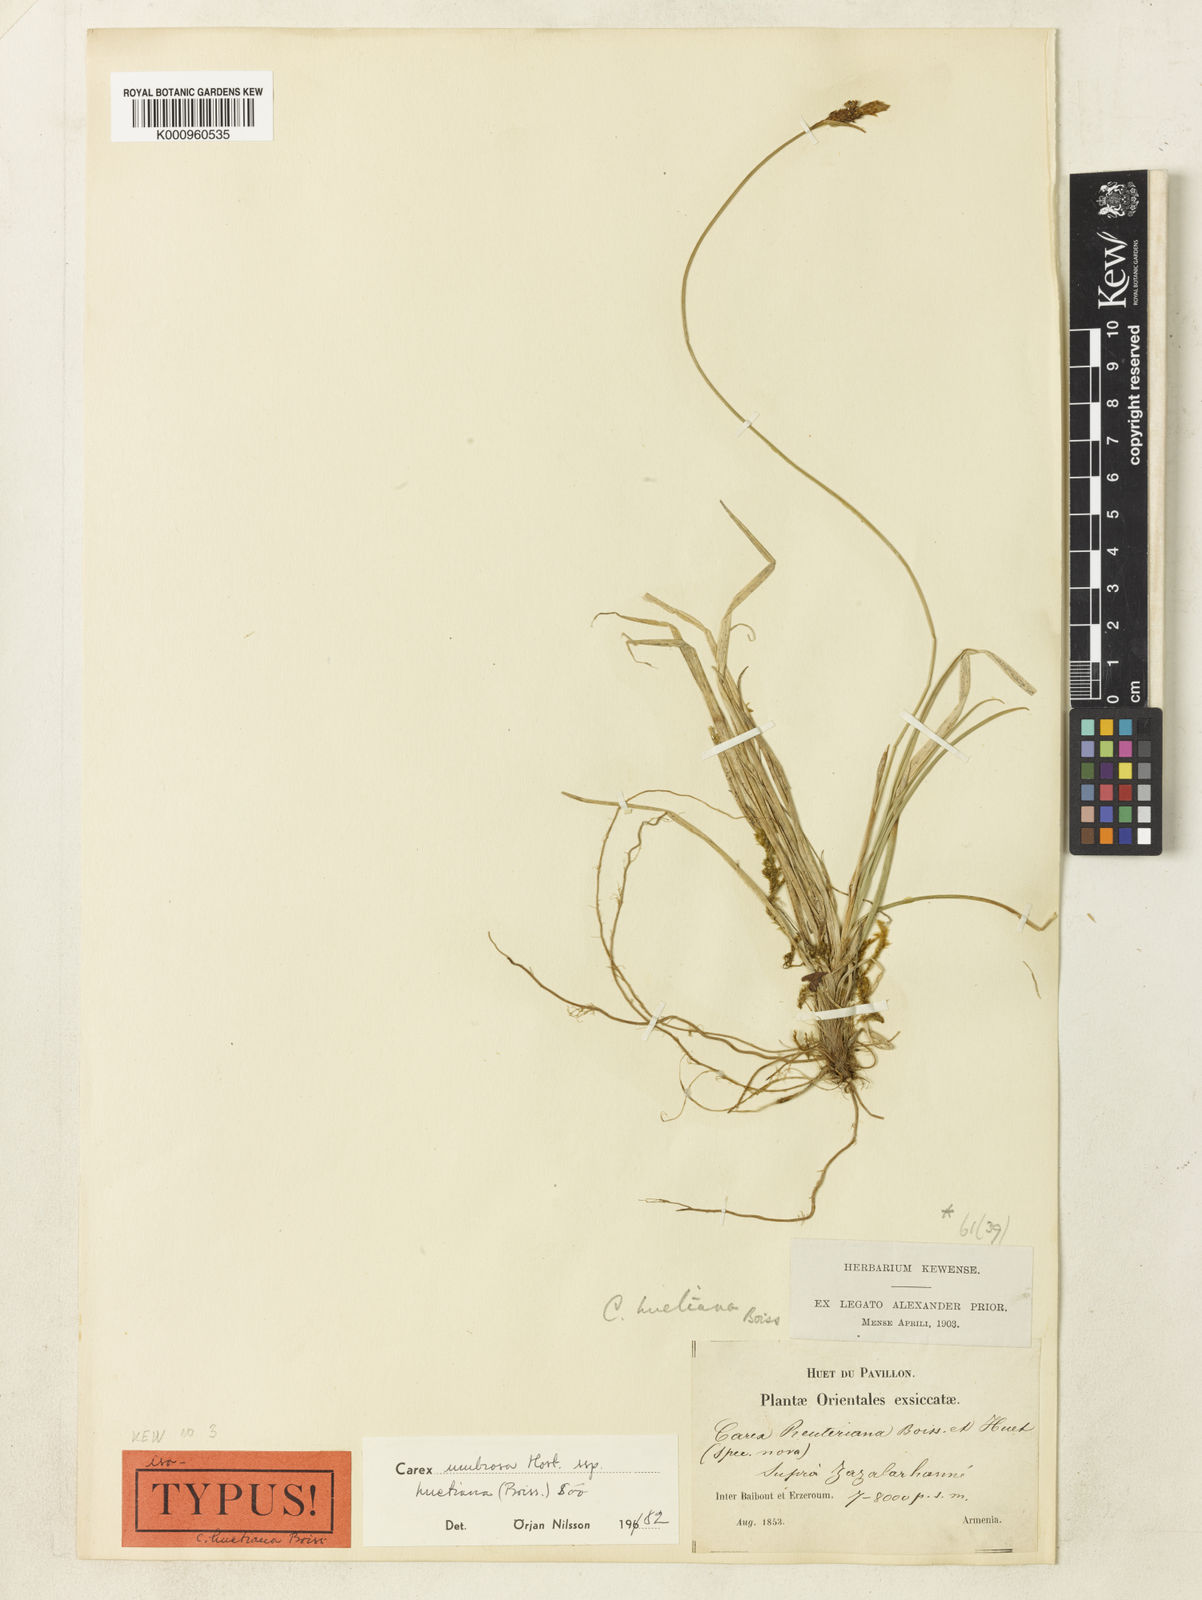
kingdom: Plantae
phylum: Tracheophyta
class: Liliopsida
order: Poales
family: Cyperaceae
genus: Carex
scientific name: Carex umbrosa
